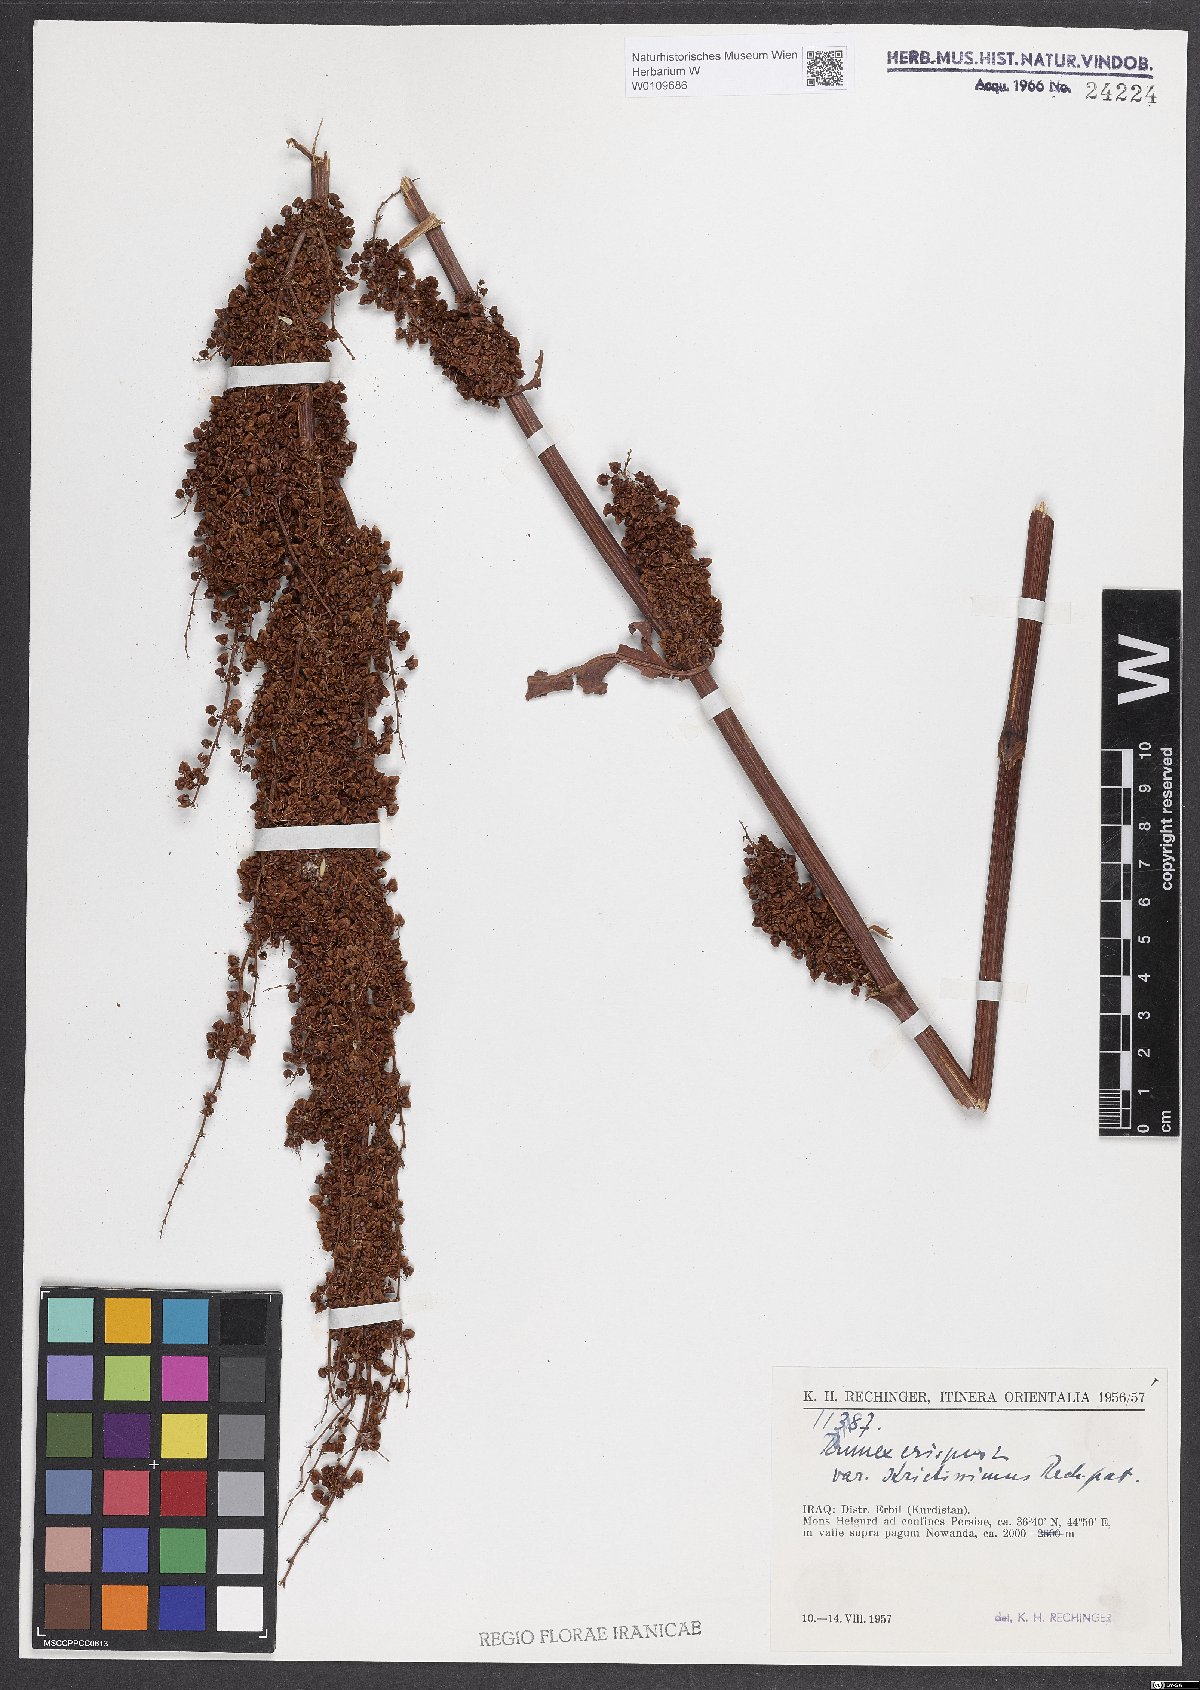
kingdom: Plantae
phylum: Tracheophyta
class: Magnoliopsida
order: Caryophyllales
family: Polygonaceae
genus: Rumex
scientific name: Rumex crispus
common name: Curled dock
